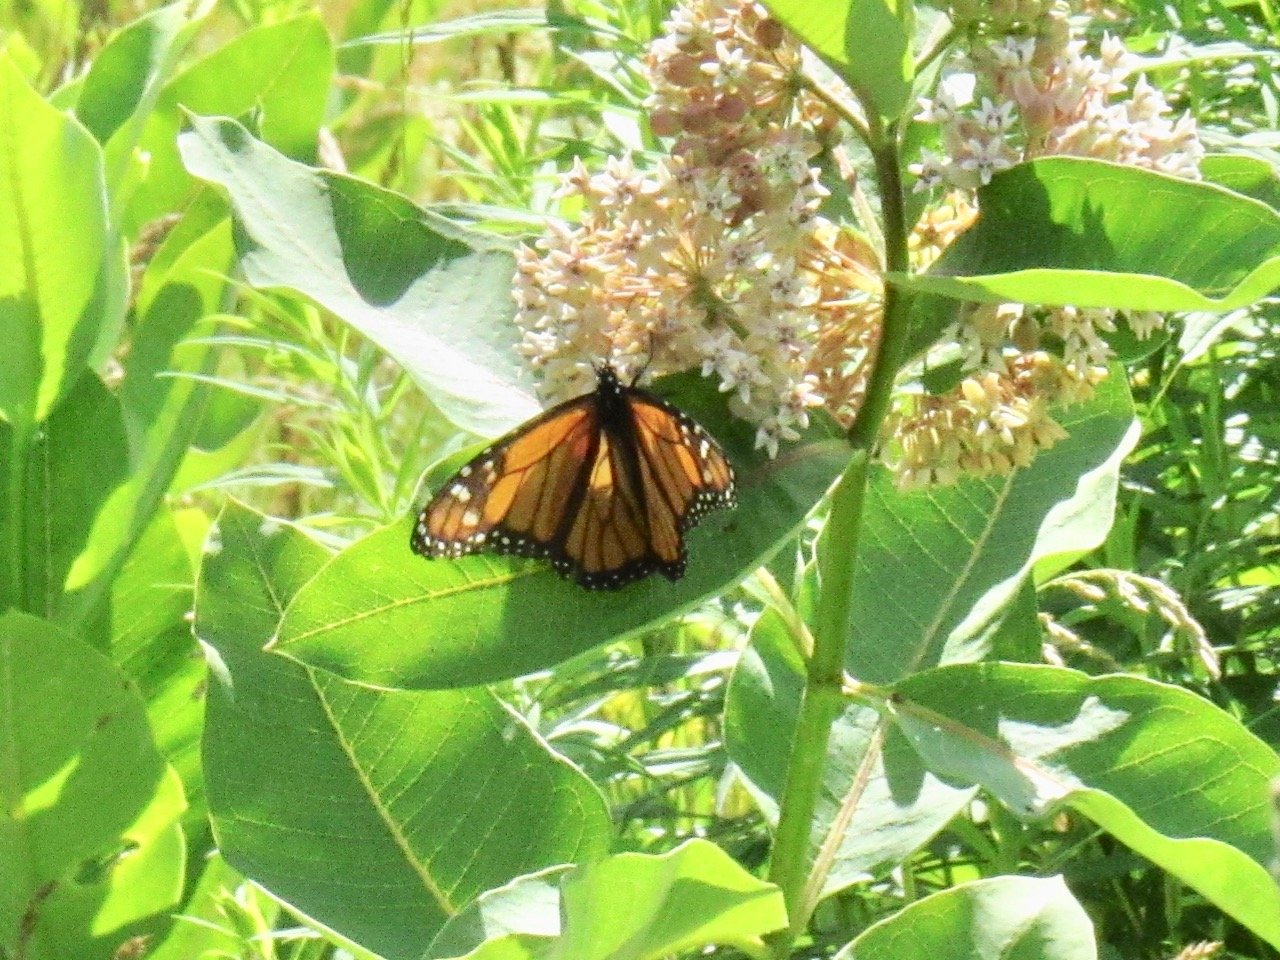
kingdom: Animalia
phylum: Arthropoda
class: Insecta
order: Lepidoptera
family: Nymphalidae
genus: Danaus
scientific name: Danaus plexippus
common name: Monarch
